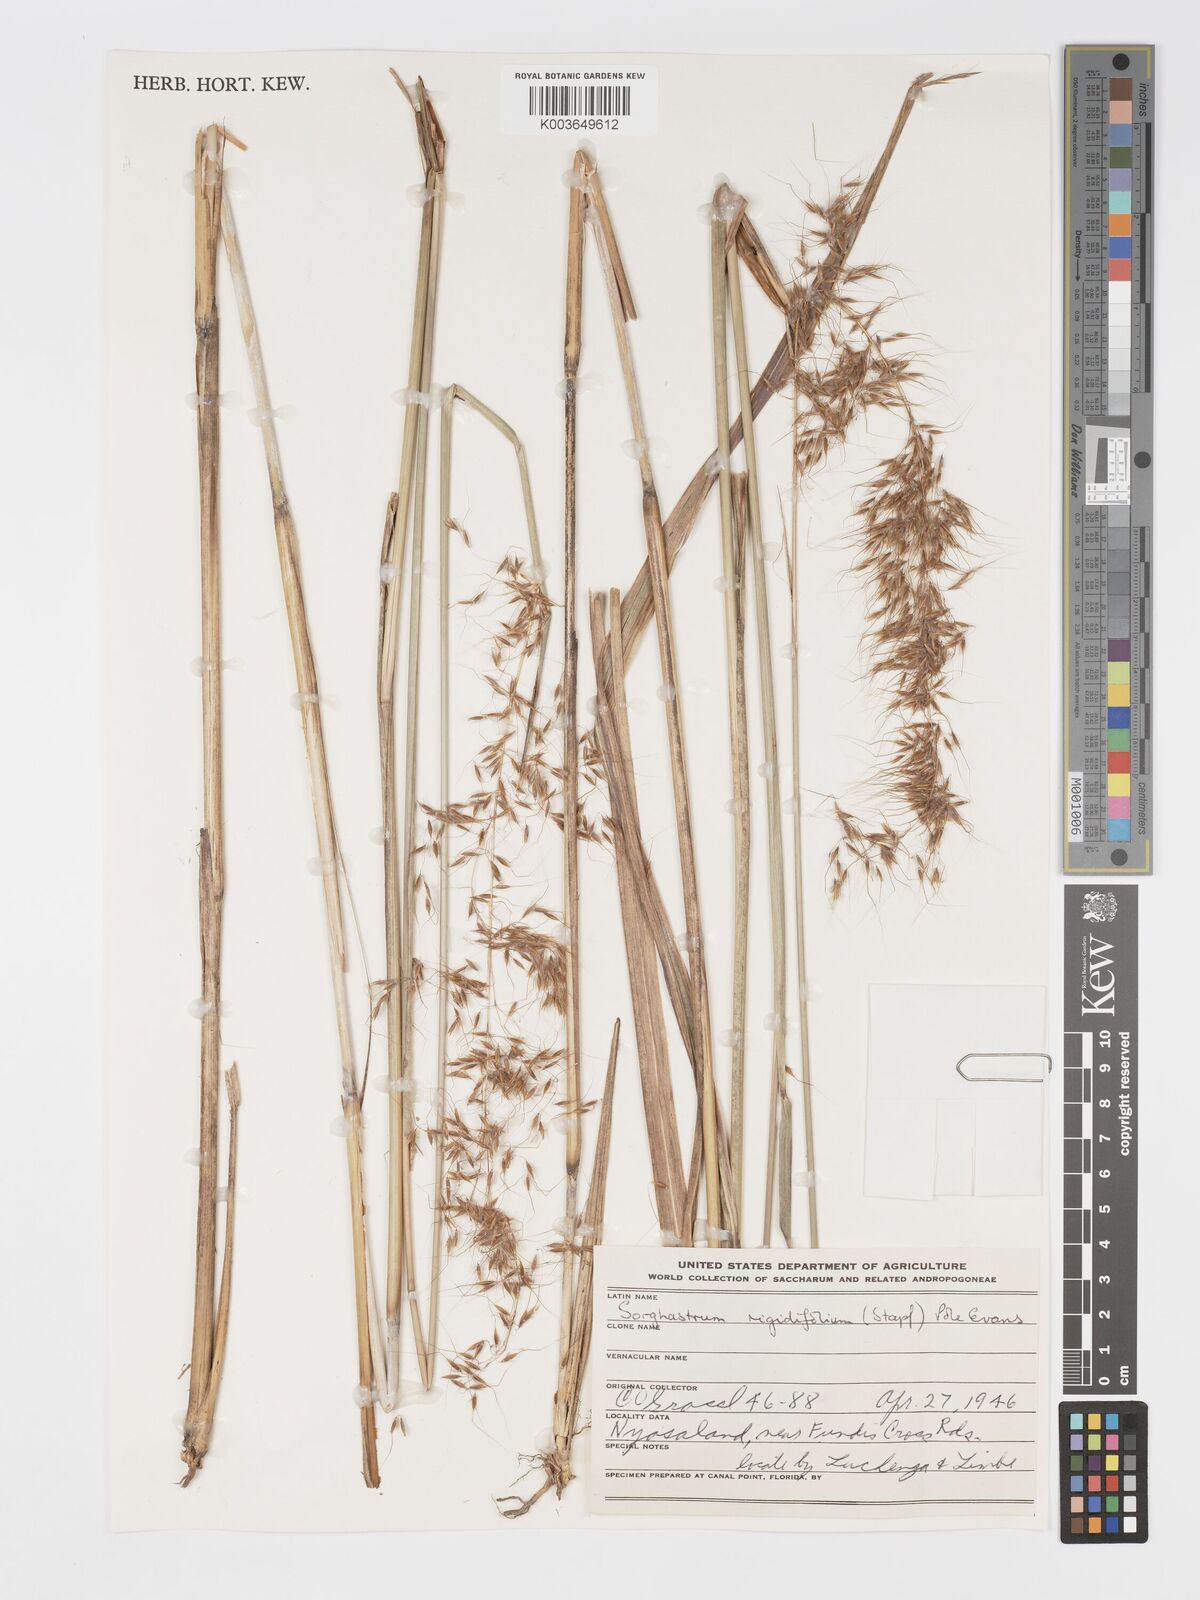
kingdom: Plantae
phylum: Tracheophyta
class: Liliopsida
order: Poales
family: Poaceae
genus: Sorghastrum
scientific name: Sorghastrum stipoides
